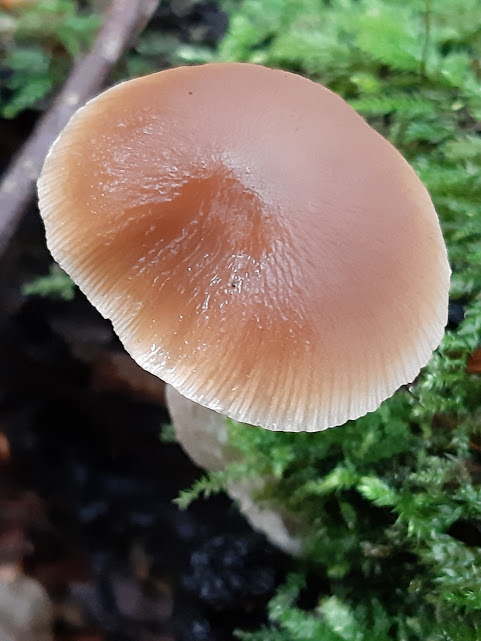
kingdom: Fungi
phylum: Basidiomycota
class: Agaricomycetes
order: Agaricales
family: Psathyrellaceae
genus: Psathyrella
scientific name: Psathyrella
